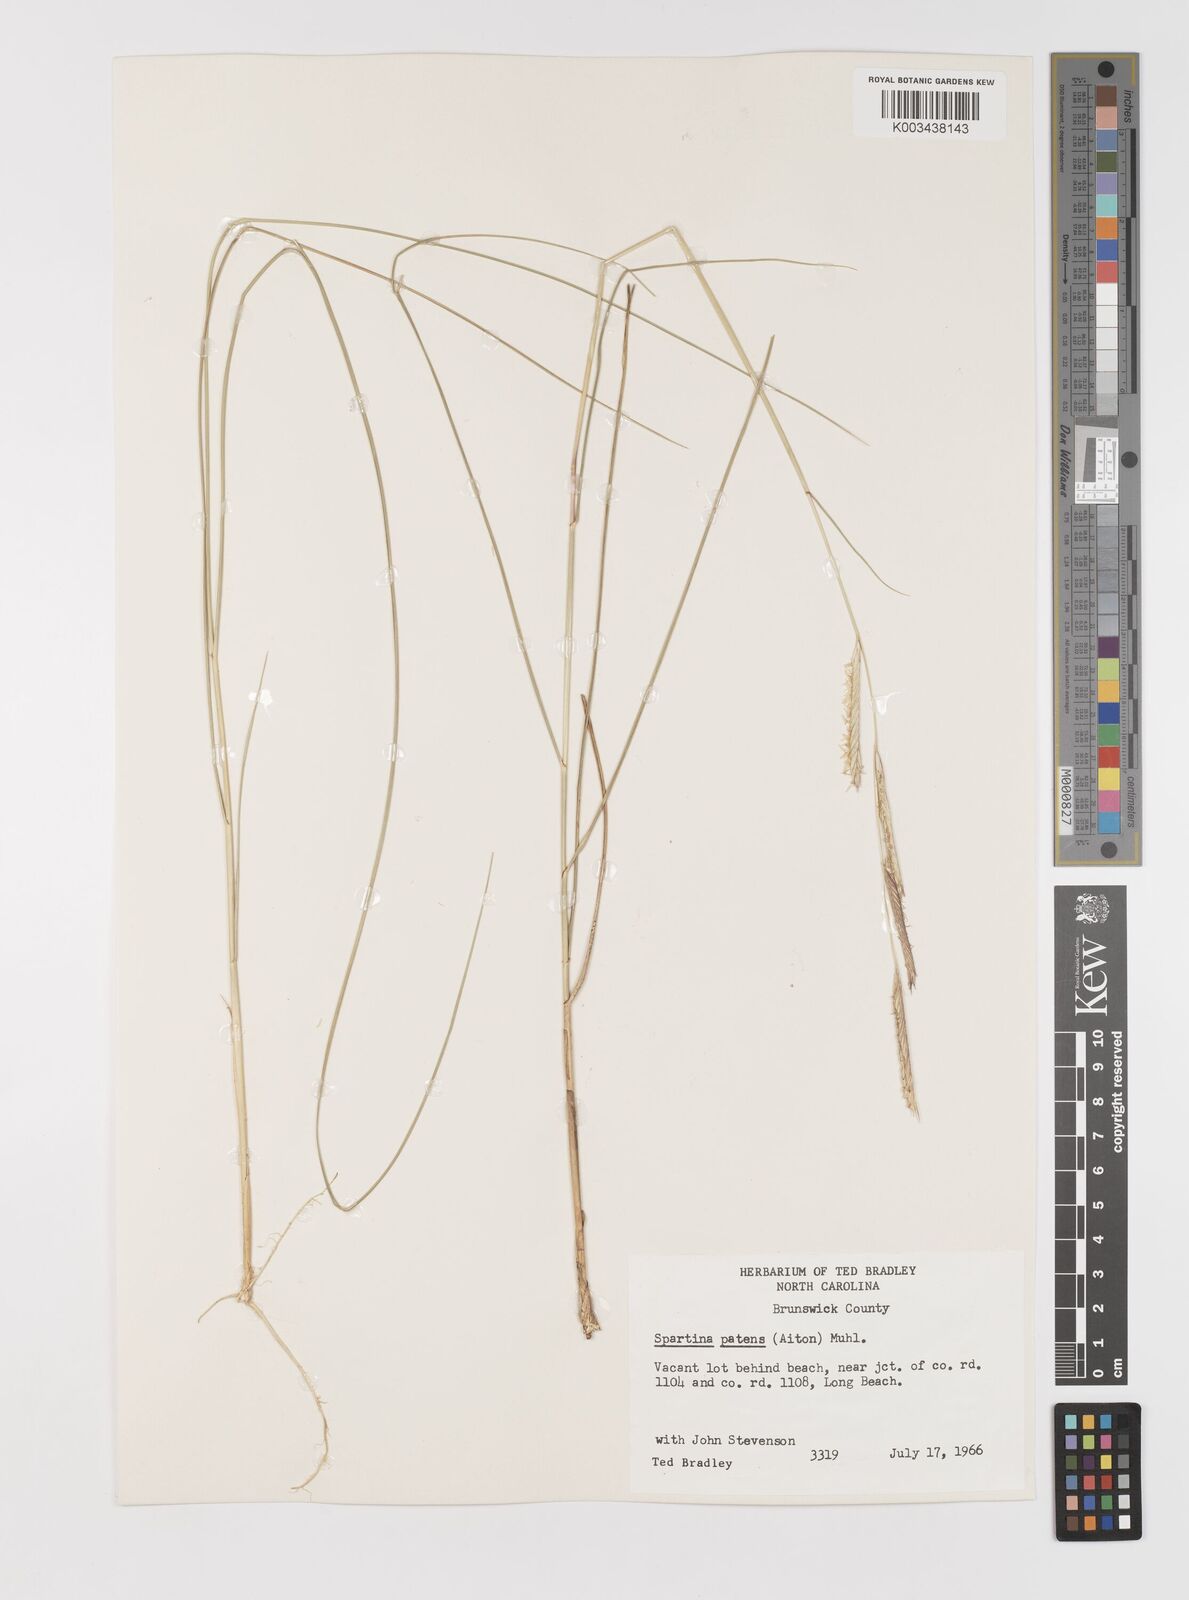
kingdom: Plantae
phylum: Tracheophyta
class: Liliopsida
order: Poales
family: Poaceae
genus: Sporobolus
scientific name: Sporobolus pumilus
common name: Highwater grass
